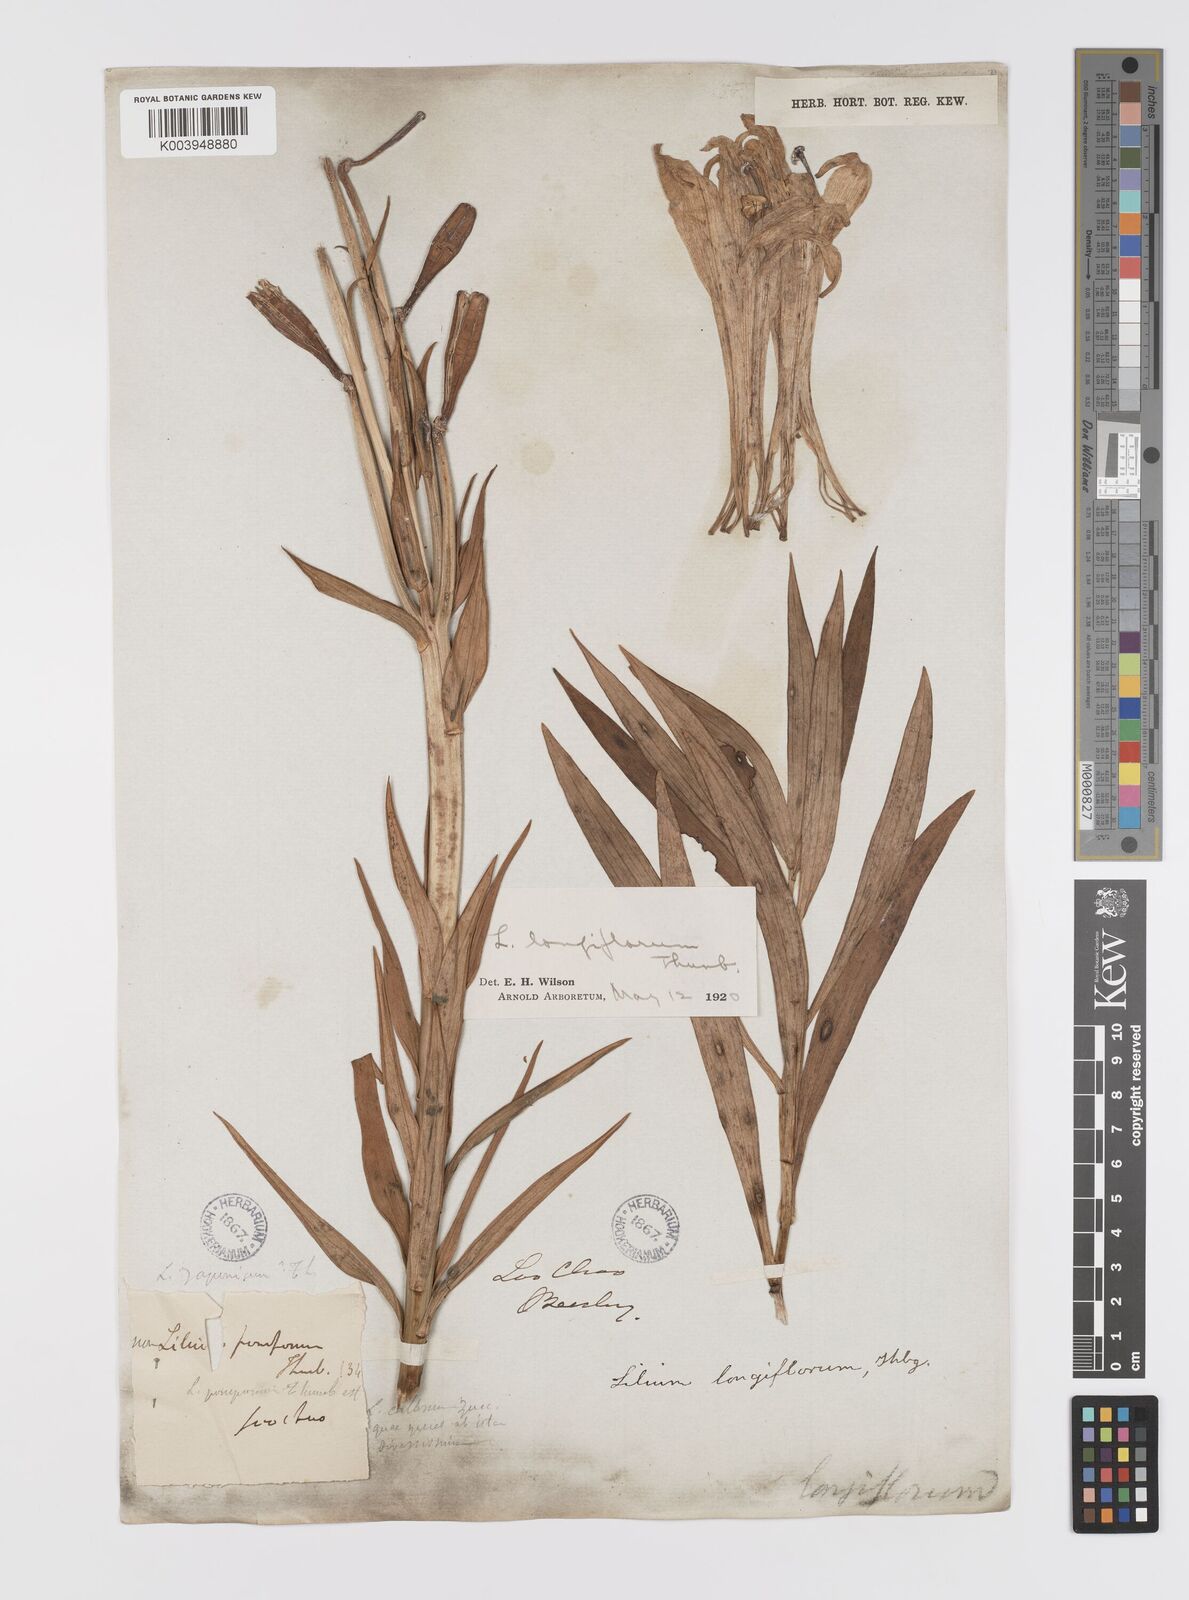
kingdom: Plantae
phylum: Tracheophyta
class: Liliopsida
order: Liliales
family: Liliaceae
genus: Lilium
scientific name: Lilium longiflorum
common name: Easter lily
